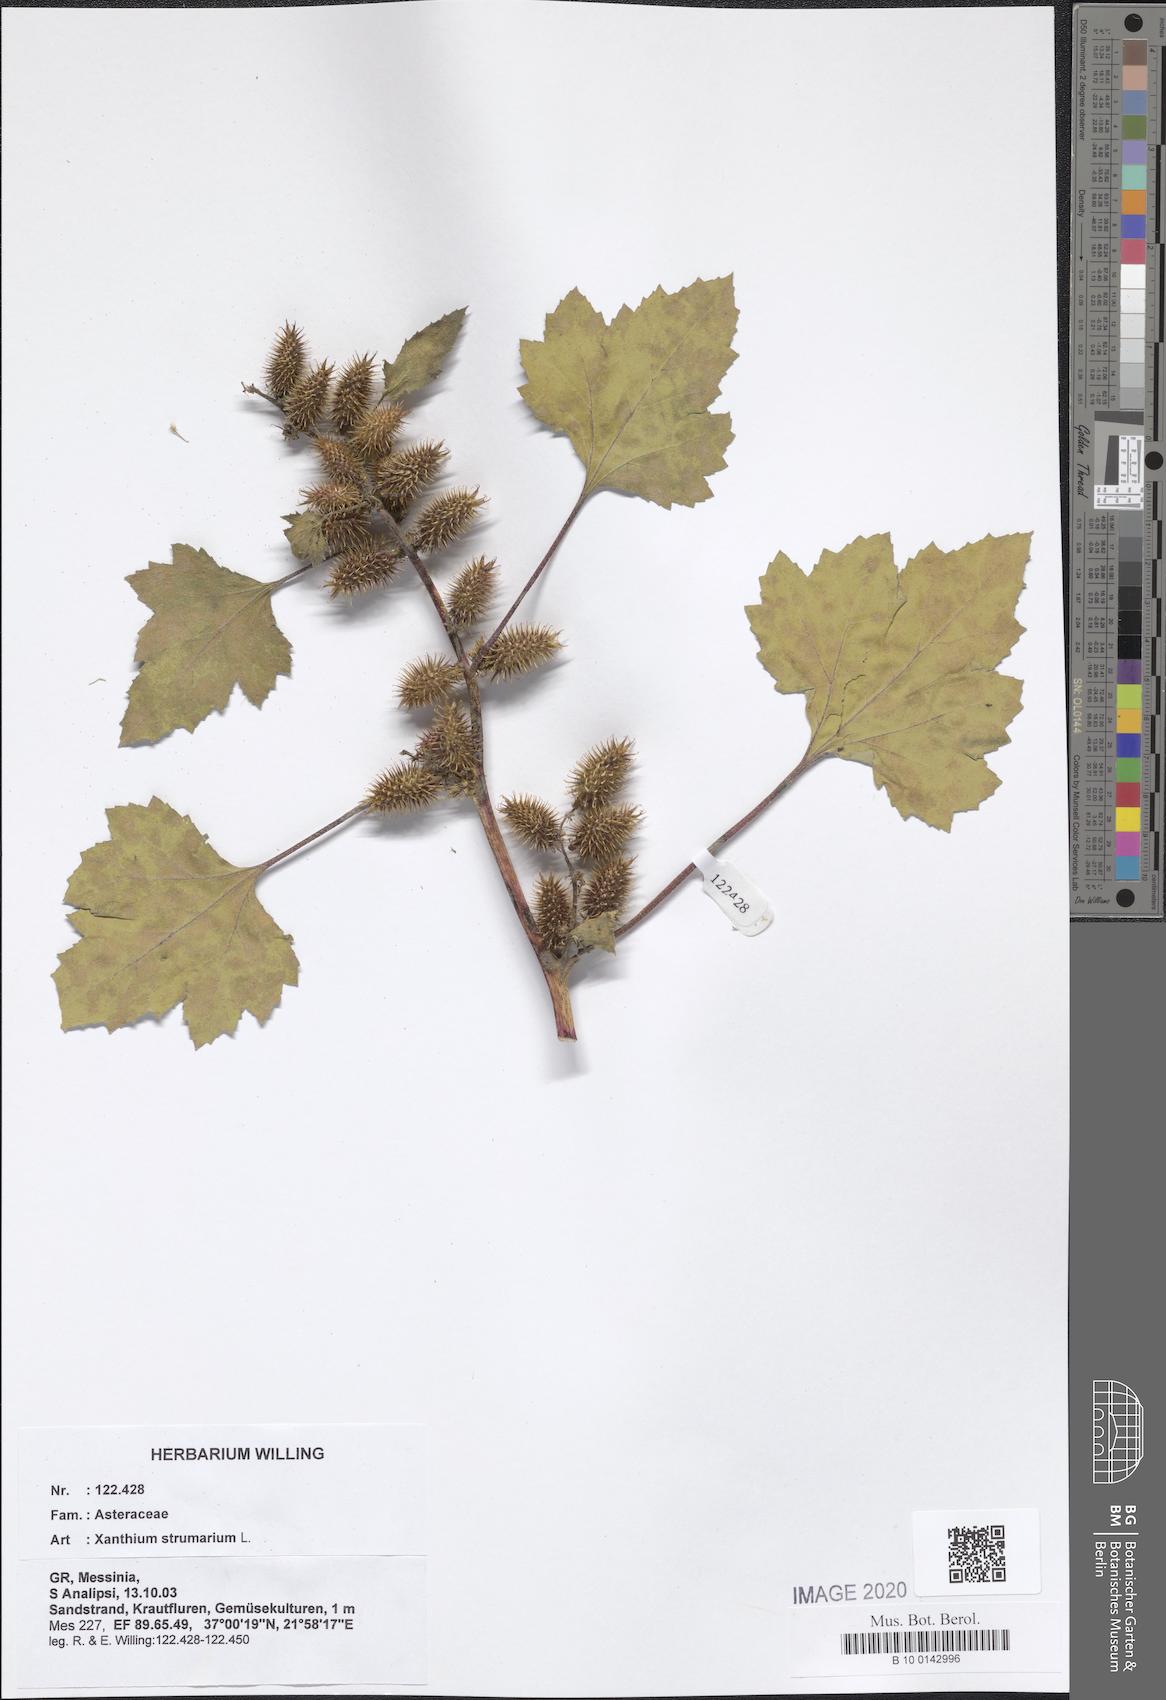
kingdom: Plantae
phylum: Tracheophyta
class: Magnoliopsida
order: Asterales
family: Asteraceae
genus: Xanthium
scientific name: Xanthium strumarium
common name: Rough cocklebur
